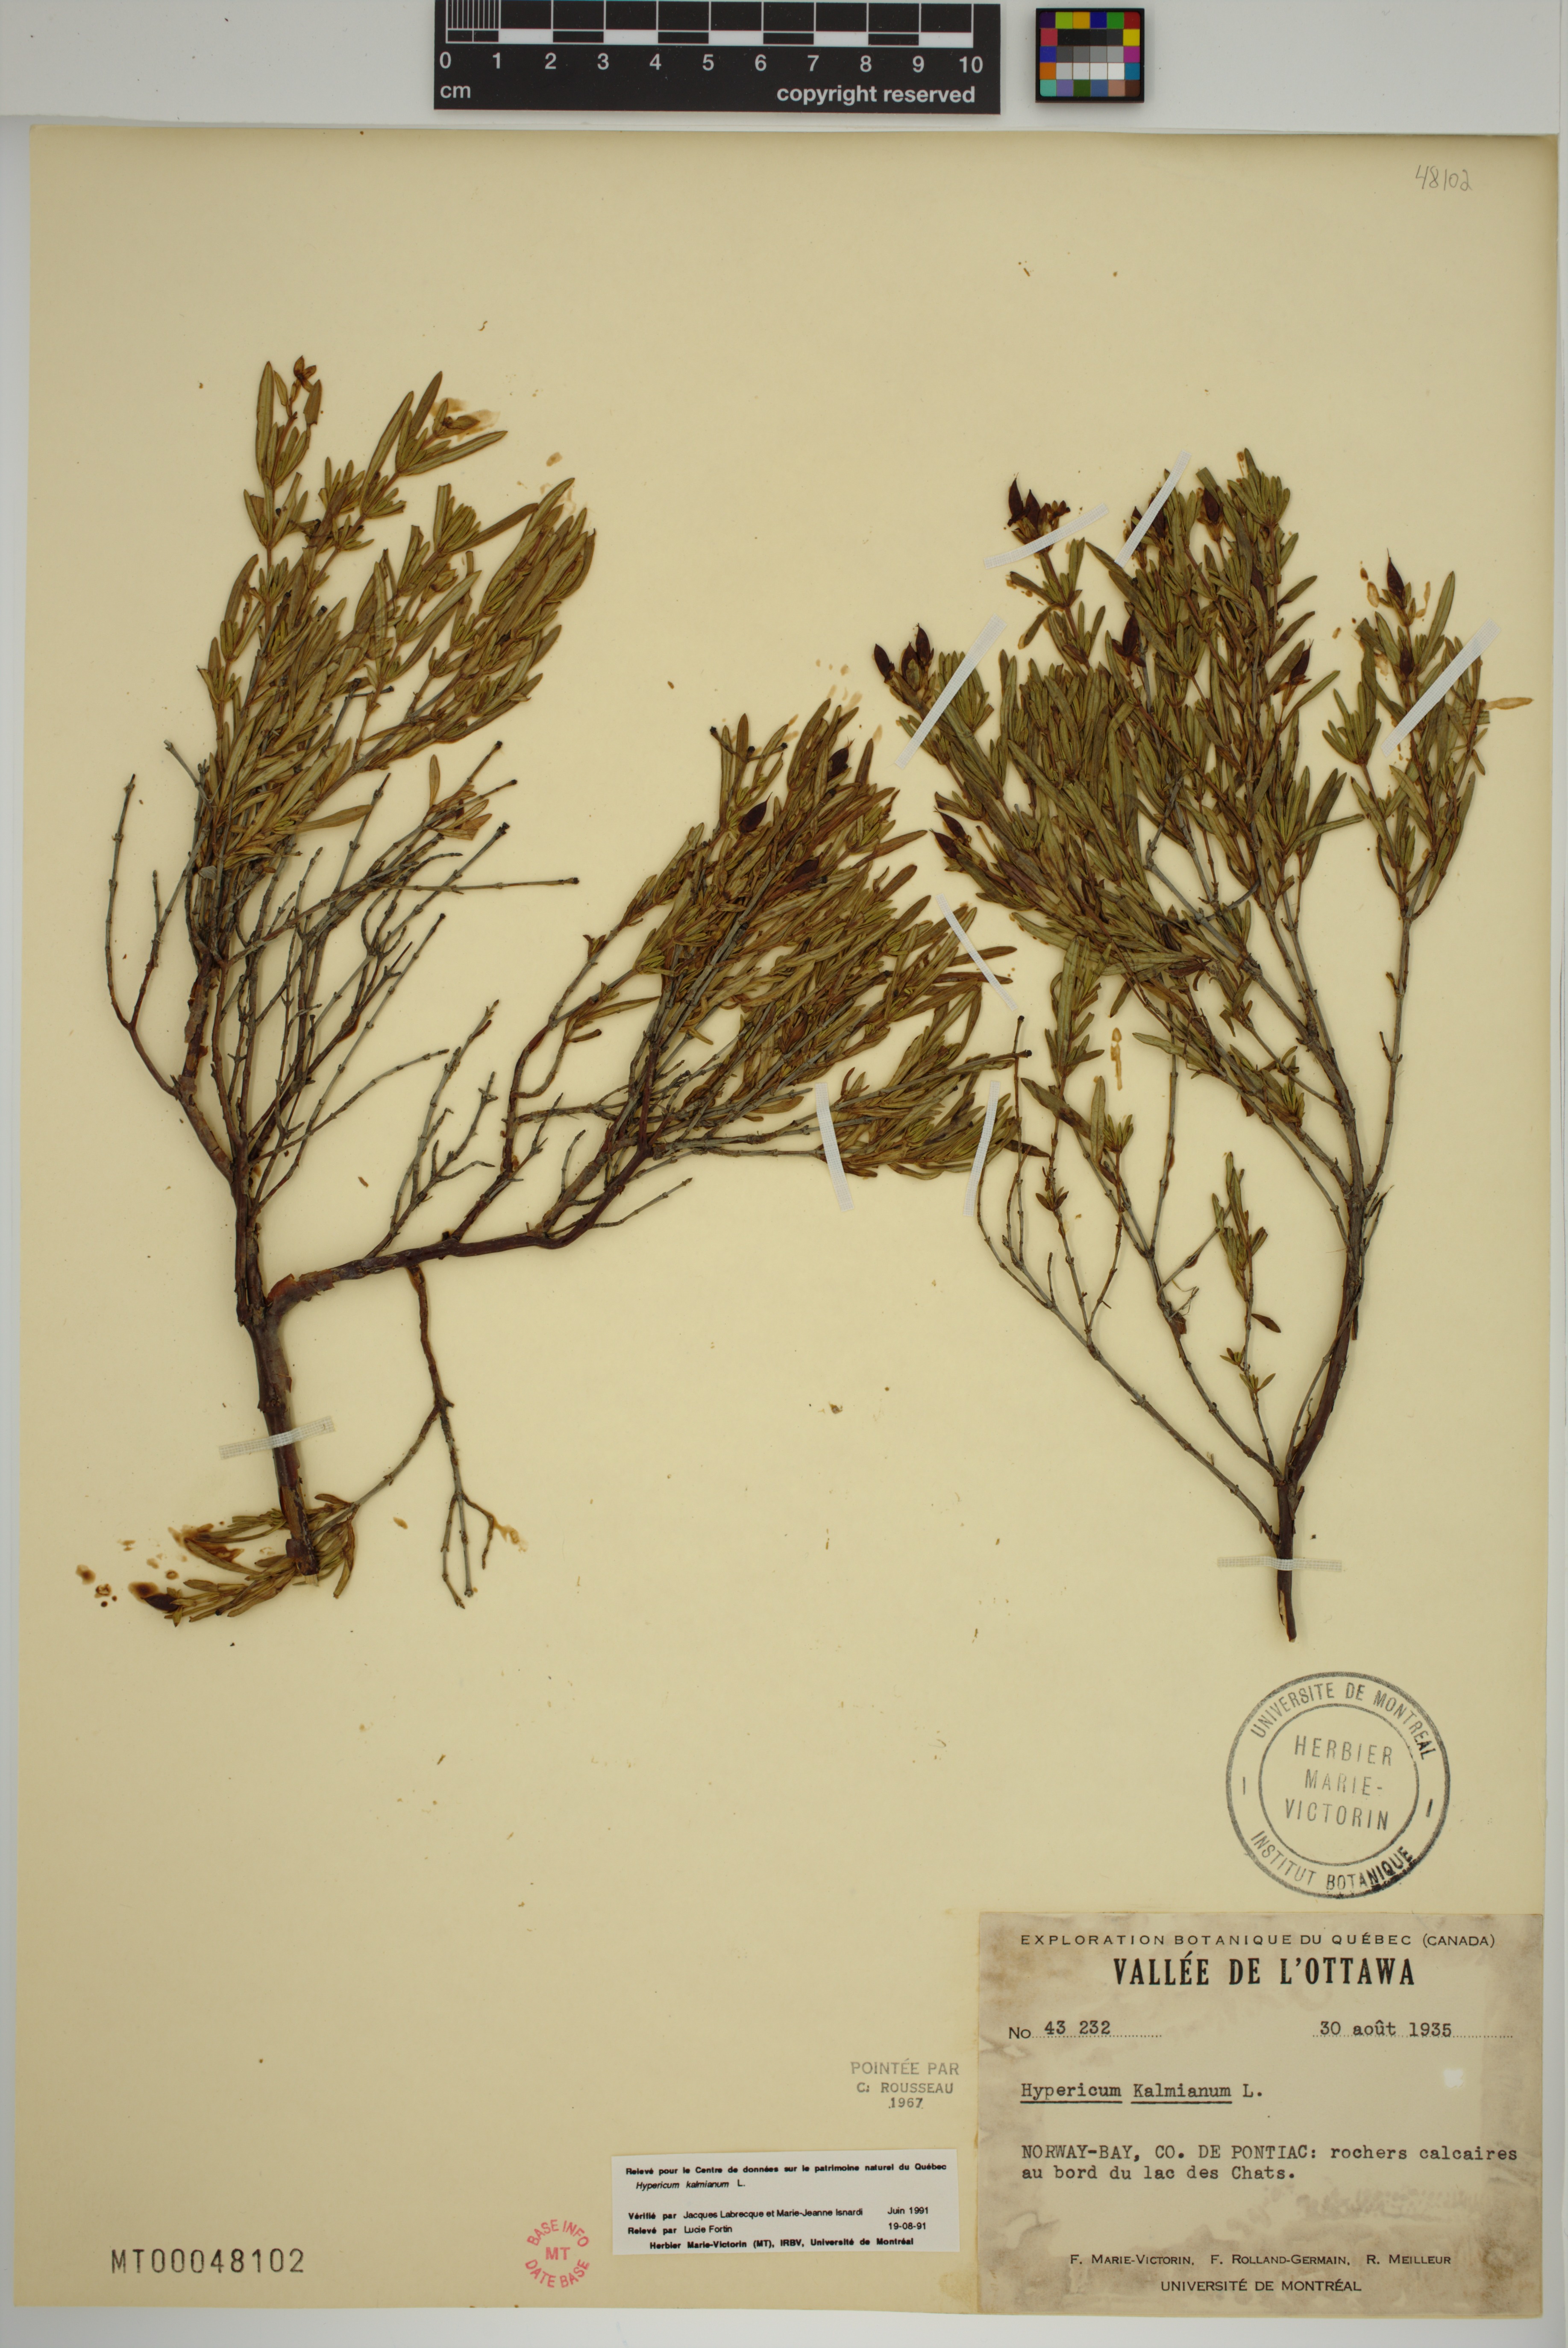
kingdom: Plantae
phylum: Tracheophyta
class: Magnoliopsida
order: Malpighiales
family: Hypericaceae
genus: Hypericum
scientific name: Hypericum kalmianum
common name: Kalm's st. john's-wort
